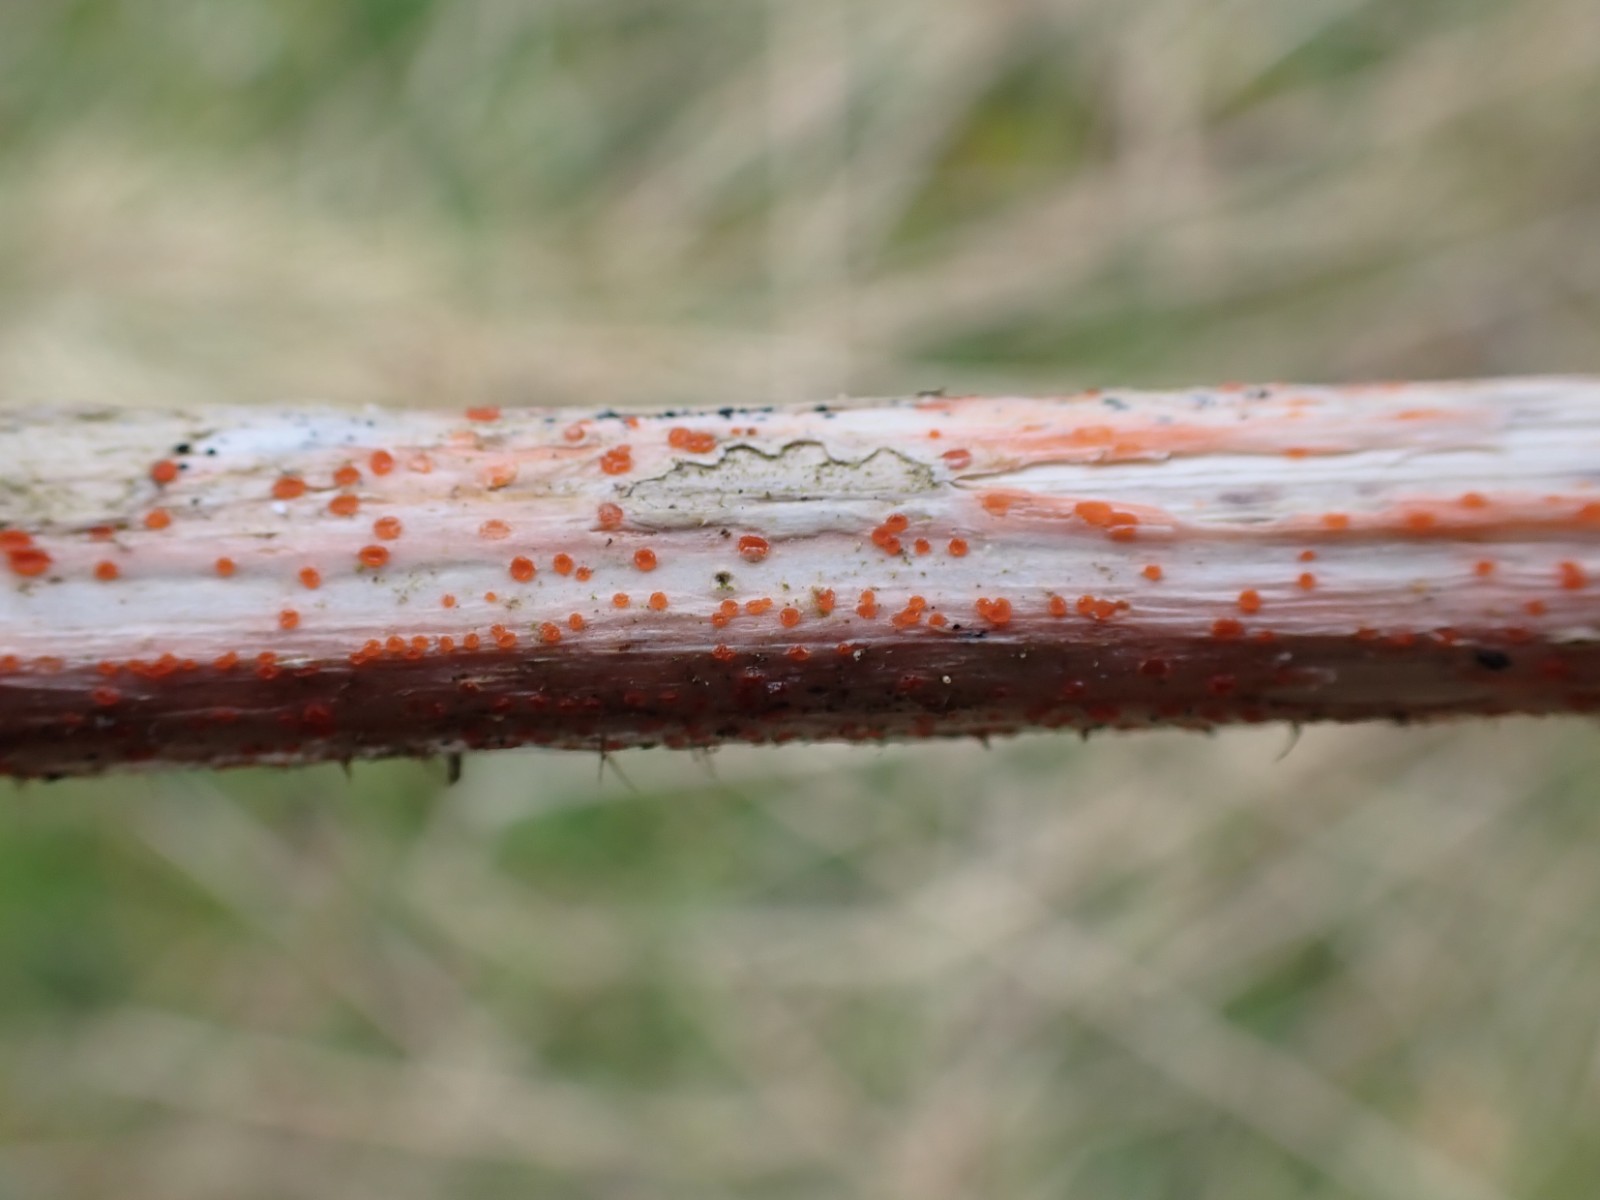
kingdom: Fungi
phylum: Ascomycota
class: Leotiomycetes
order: Helotiales
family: Calloriaceae
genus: Calloria
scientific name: Calloria urticae
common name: nælde-orangeskive
